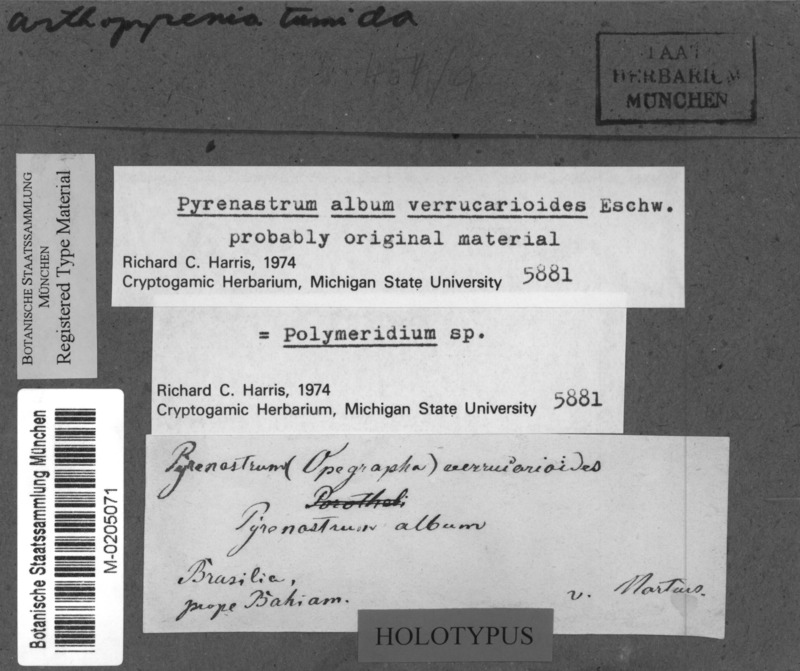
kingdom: Fungi
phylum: Ascomycota
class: Eurotiomycetes
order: Verrucariales
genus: Pyrenastrum
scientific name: Pyrenastrum album
